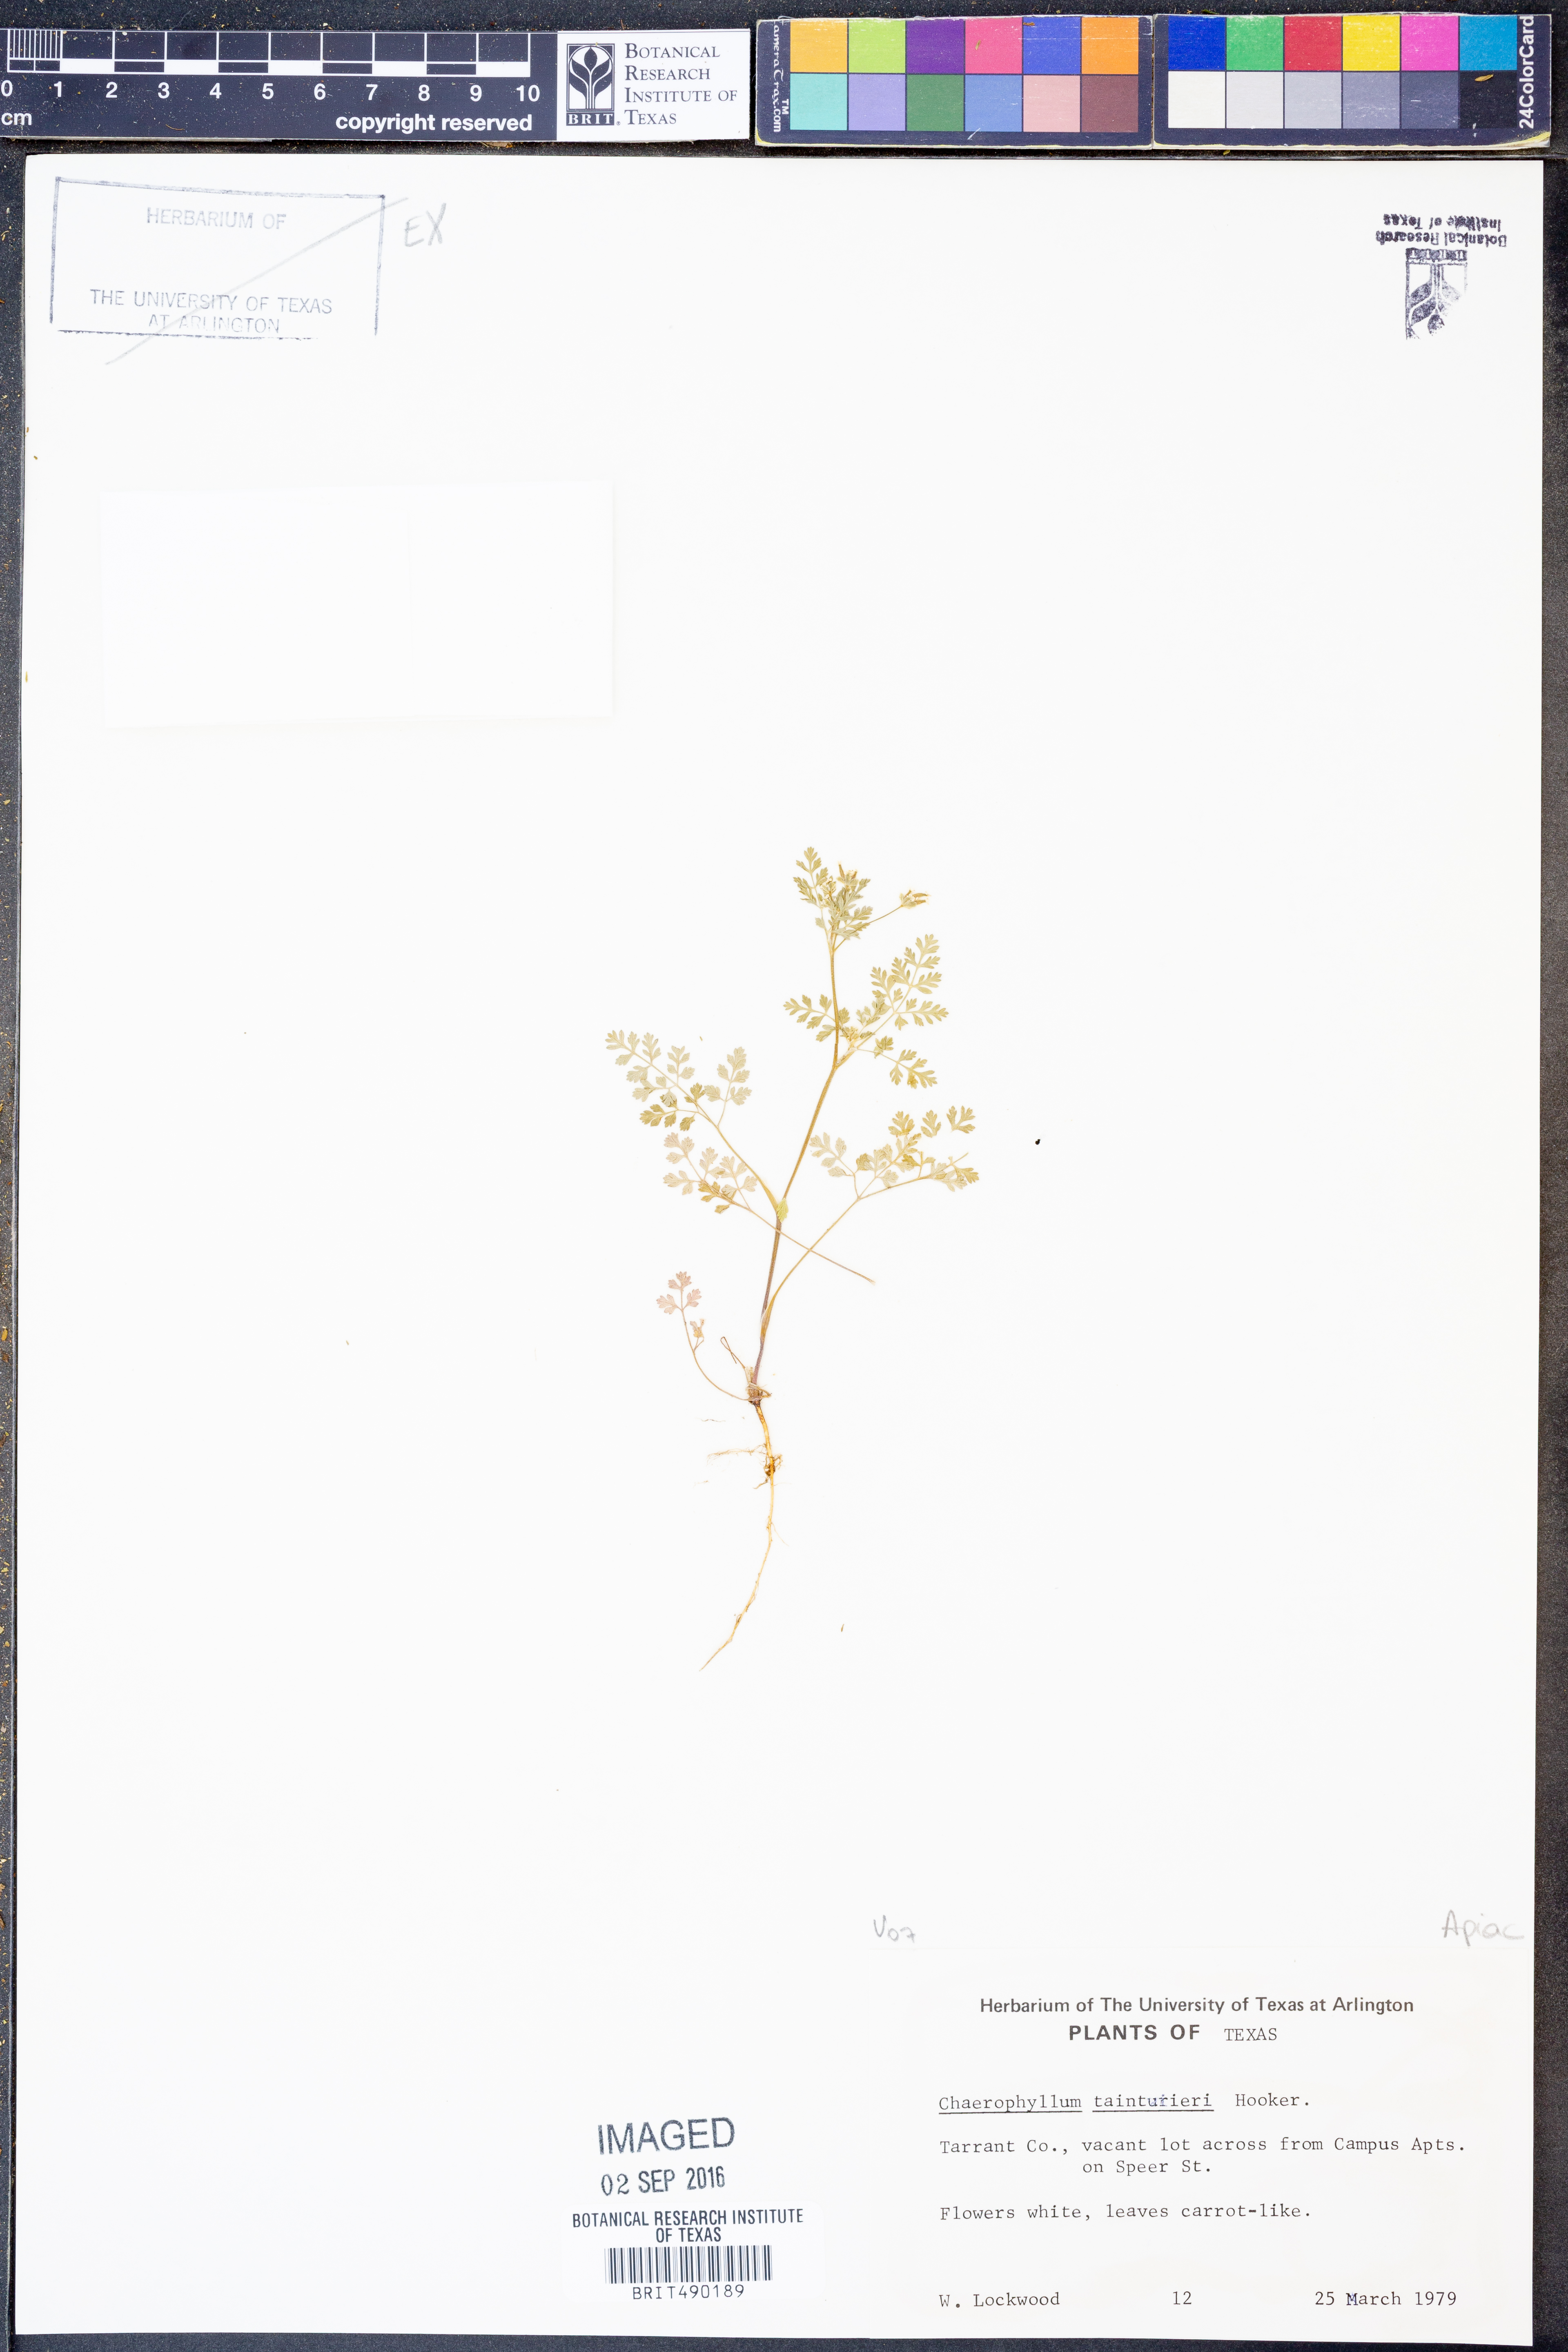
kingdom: Plantae
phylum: Tracheophyta
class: Magnoliopsida
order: Apiales
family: Apiaceae
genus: Chaerophyllum
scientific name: Chaerophyllum tainturieri
